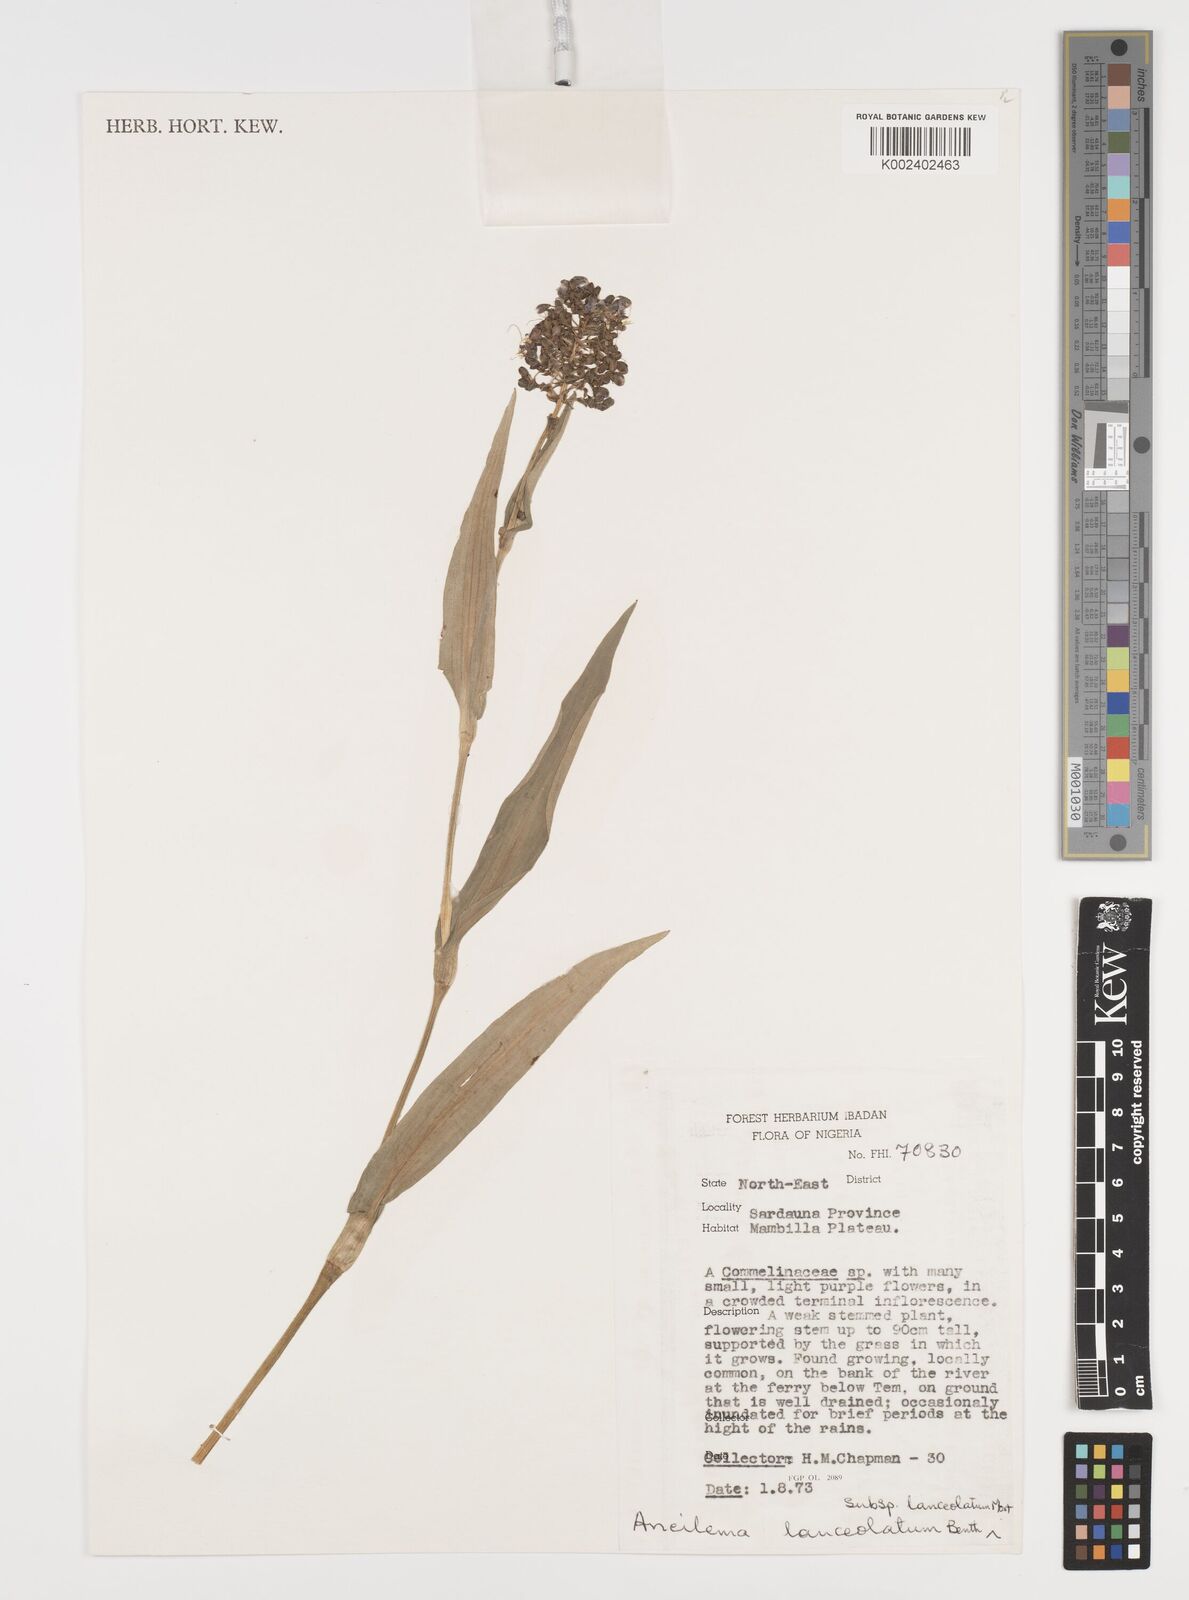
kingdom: Plantae
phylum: Tracheophyta
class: Liliopsida
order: Commelinales
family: Commelinaceae
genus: Murdannia
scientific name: Murdannia spirata
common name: Asiatic dewflower
